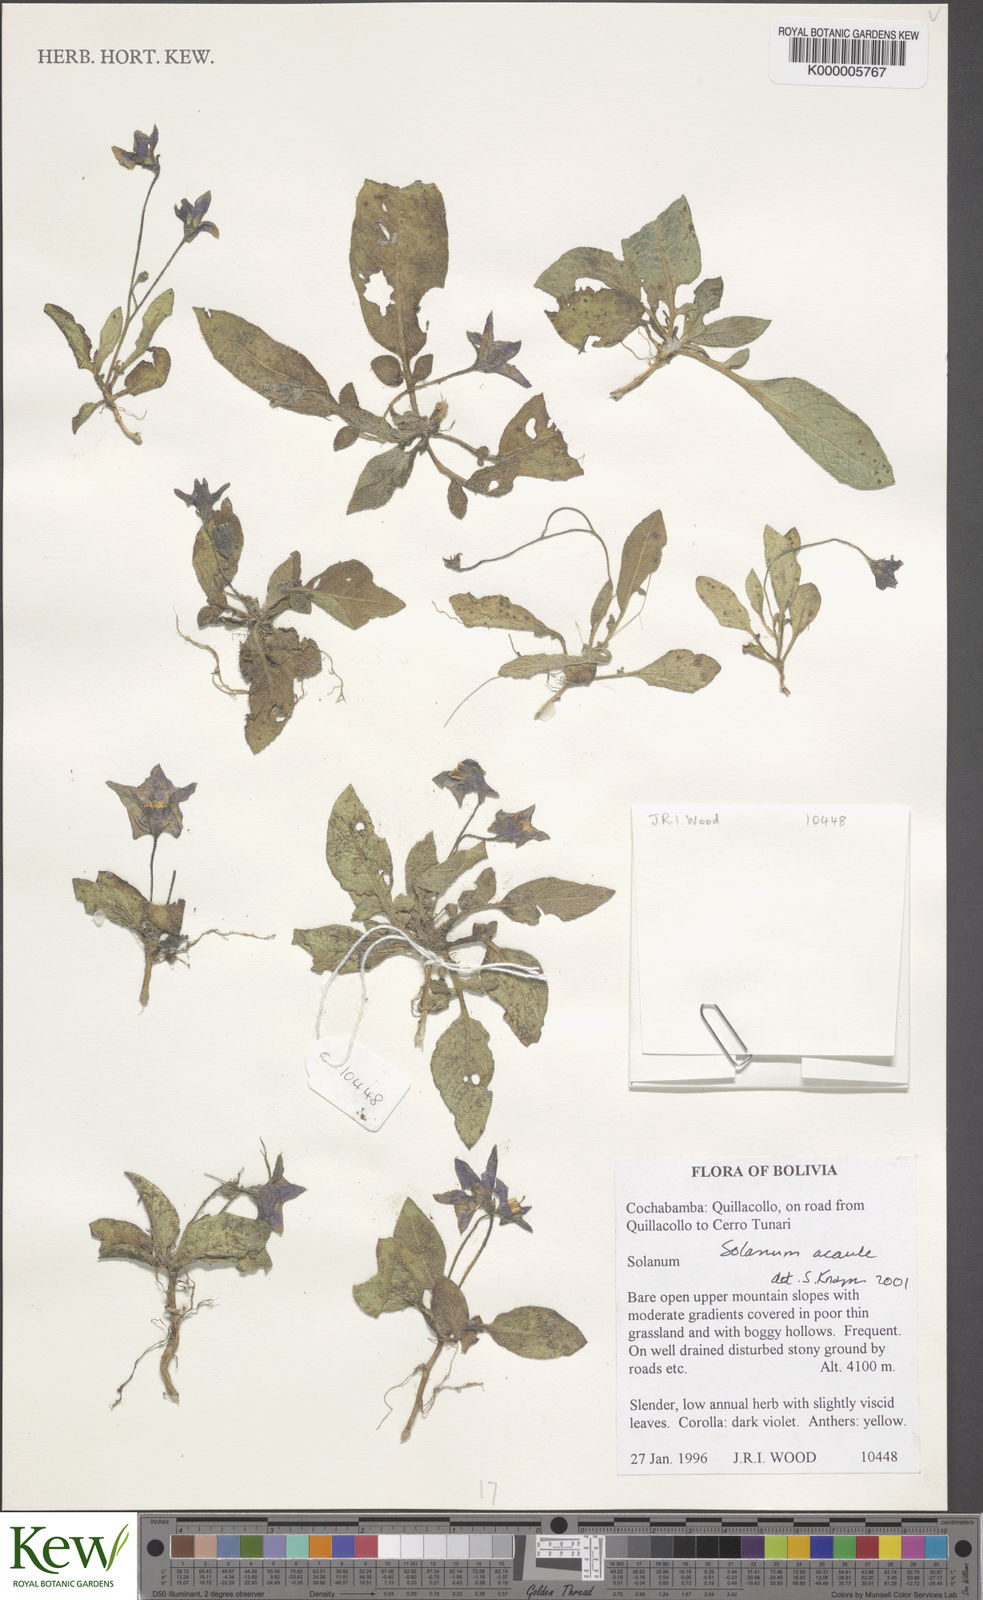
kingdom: Plantae
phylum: Tracheophyta
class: Magnoliopsida
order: Solanales
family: Solanaceae
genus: Solanum
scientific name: Solanum acaule
